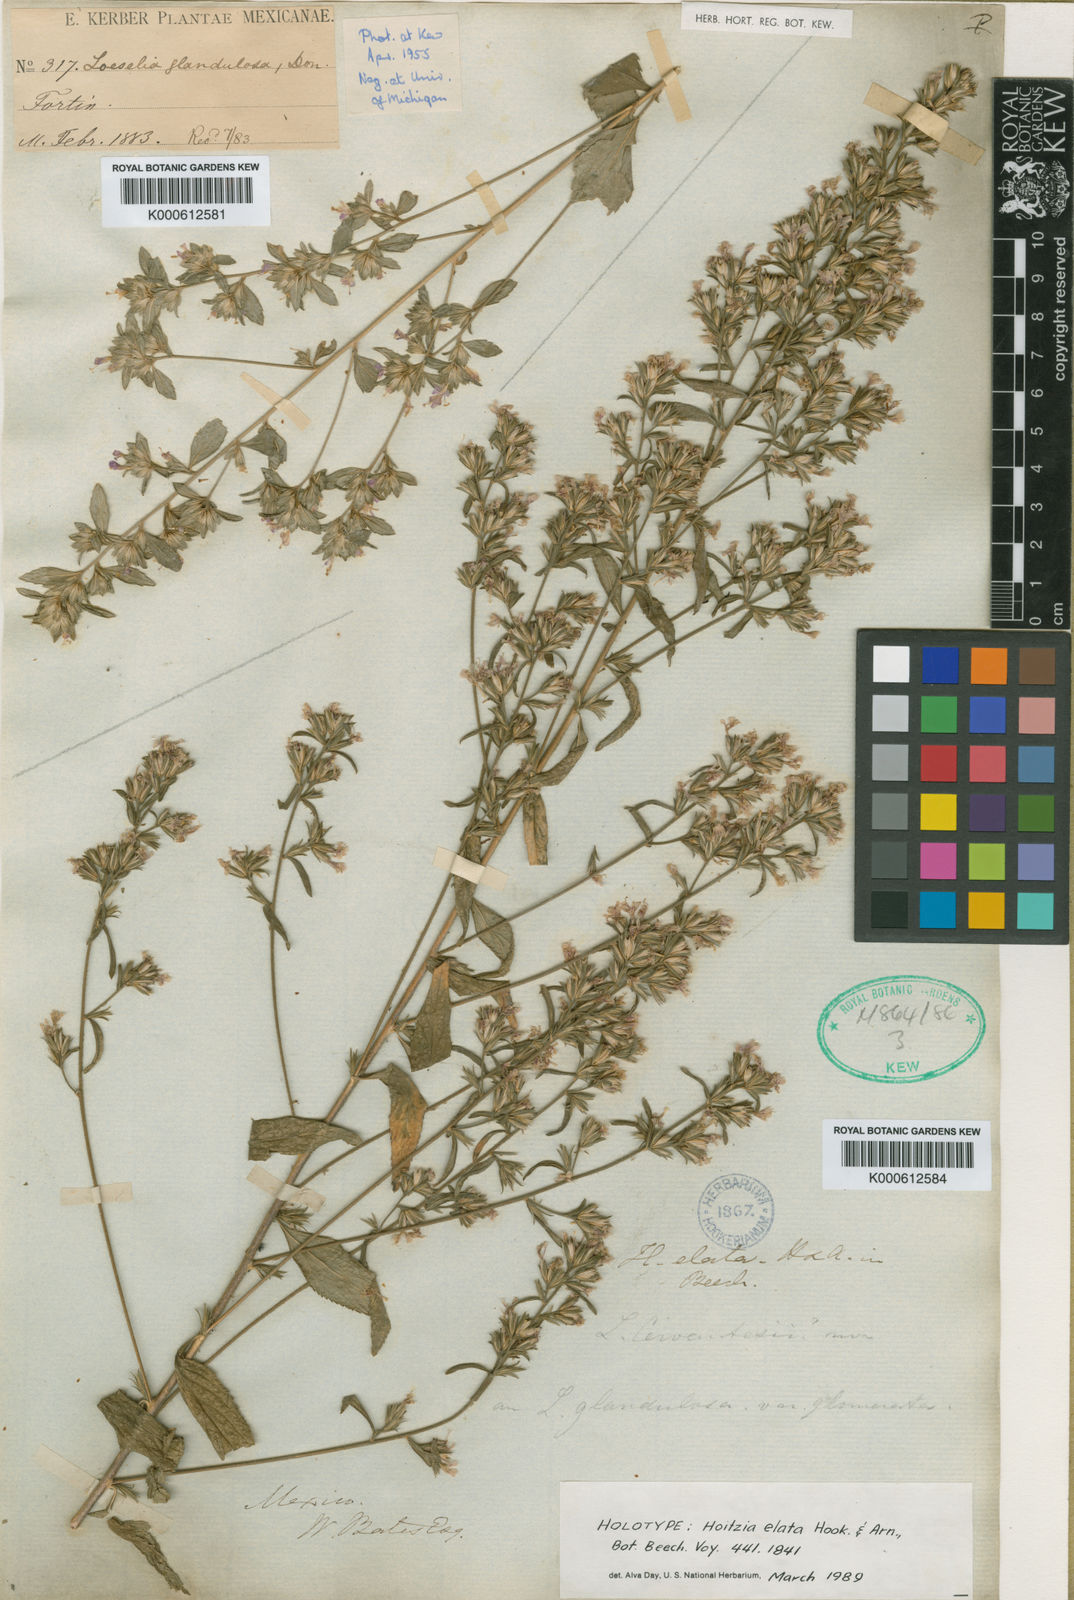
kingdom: Plantae
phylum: Tracheophyta
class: Magnoliopsida
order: Ericales
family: Polemoniaceae
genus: Loeselia
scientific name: Loeselia glandulosa
